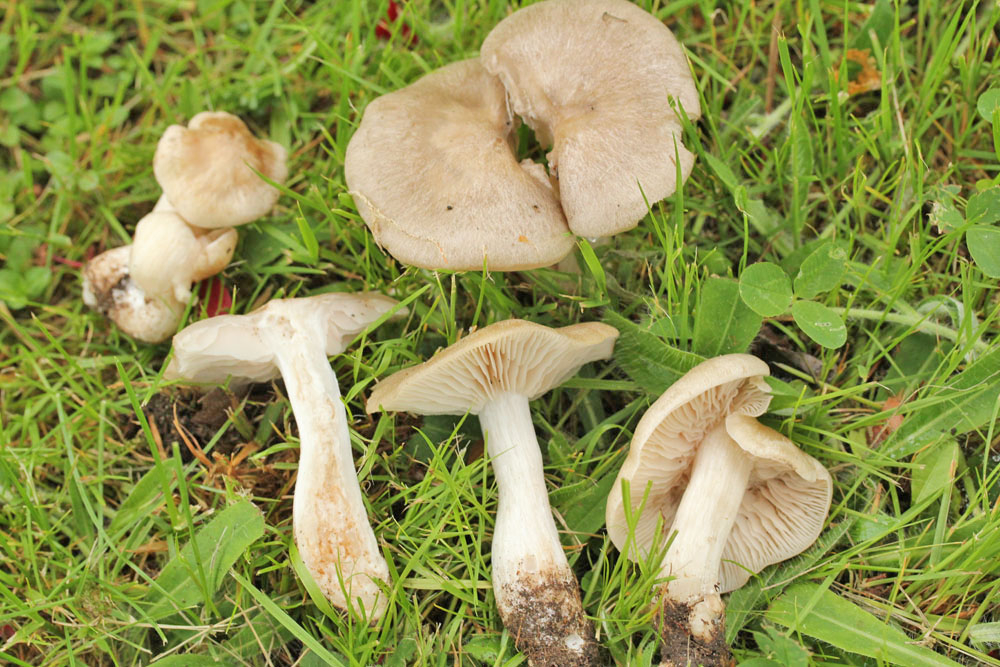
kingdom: Fungi
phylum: Basidiomycota
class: Agaricomycetes
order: Agaricales
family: Entolomataceae
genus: Entoloma
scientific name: Entoloma sepium
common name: slåen-rødblad
